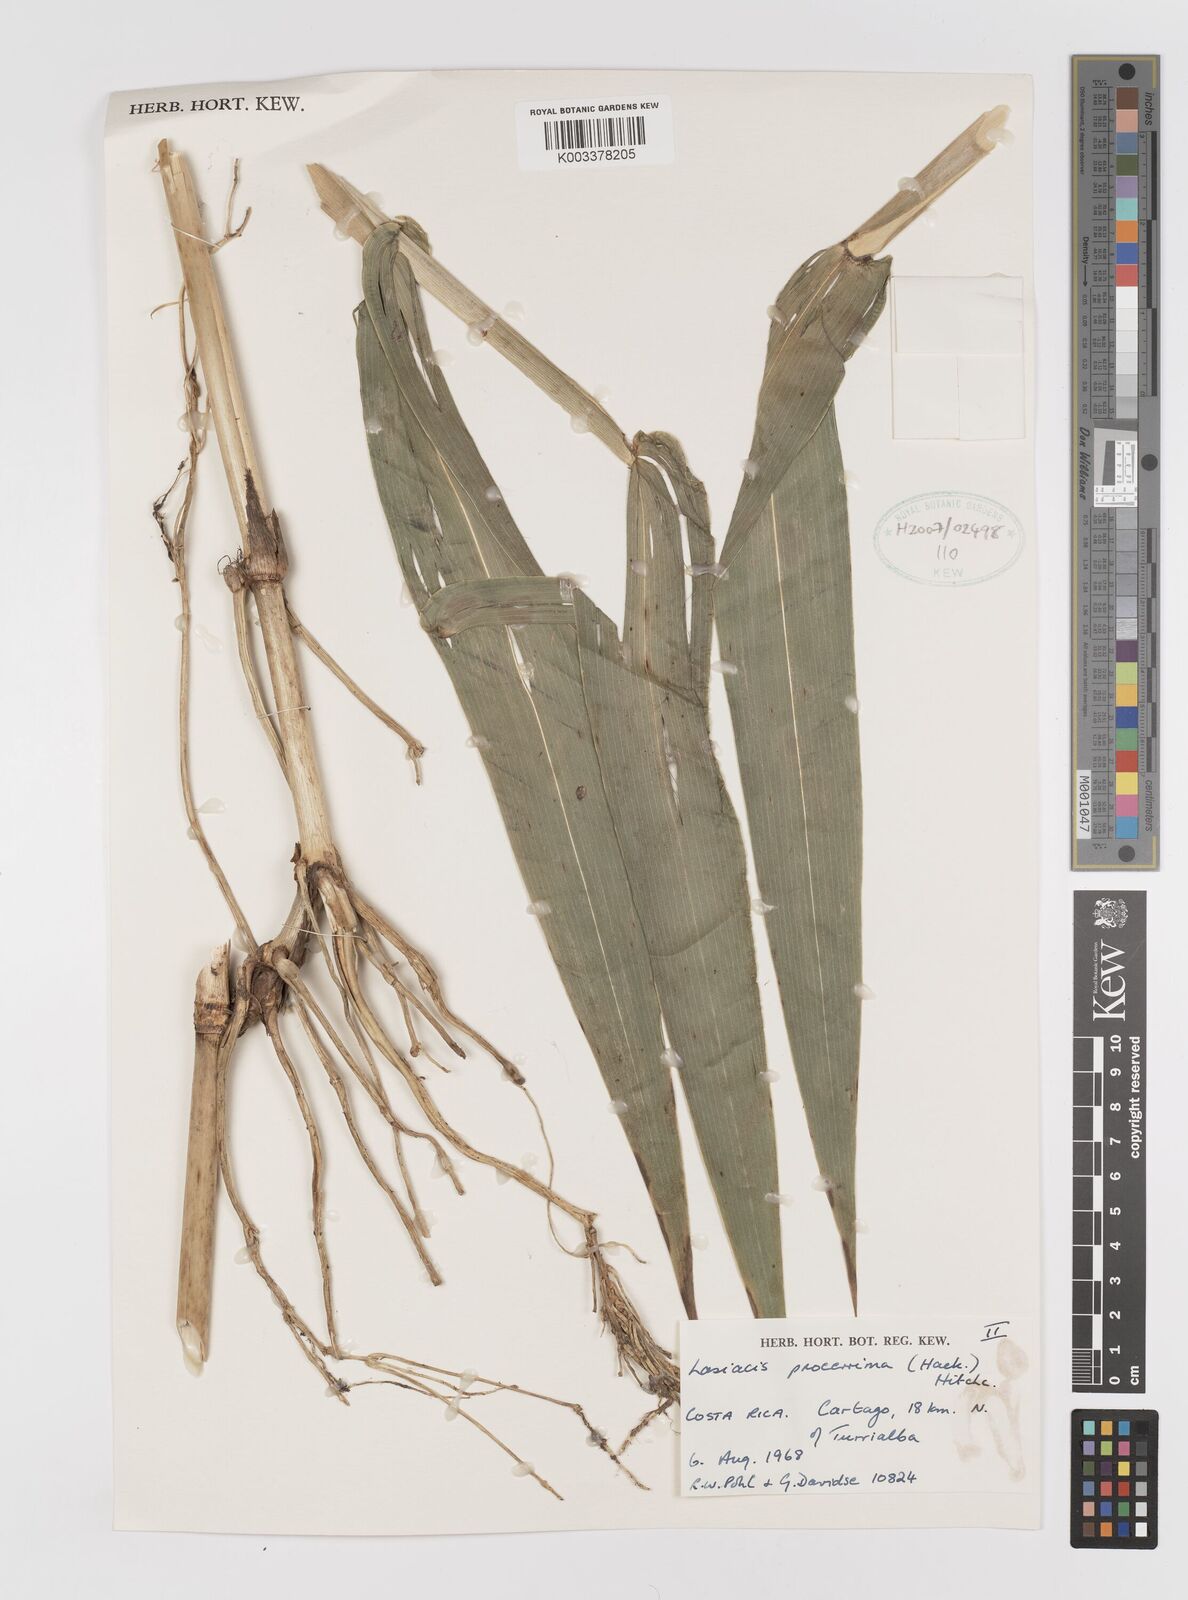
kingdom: Plantae
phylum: Tracheophyta
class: Liliopsida
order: Poales
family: Poaceae
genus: Lasiacis
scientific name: Lasiacis procerrima
